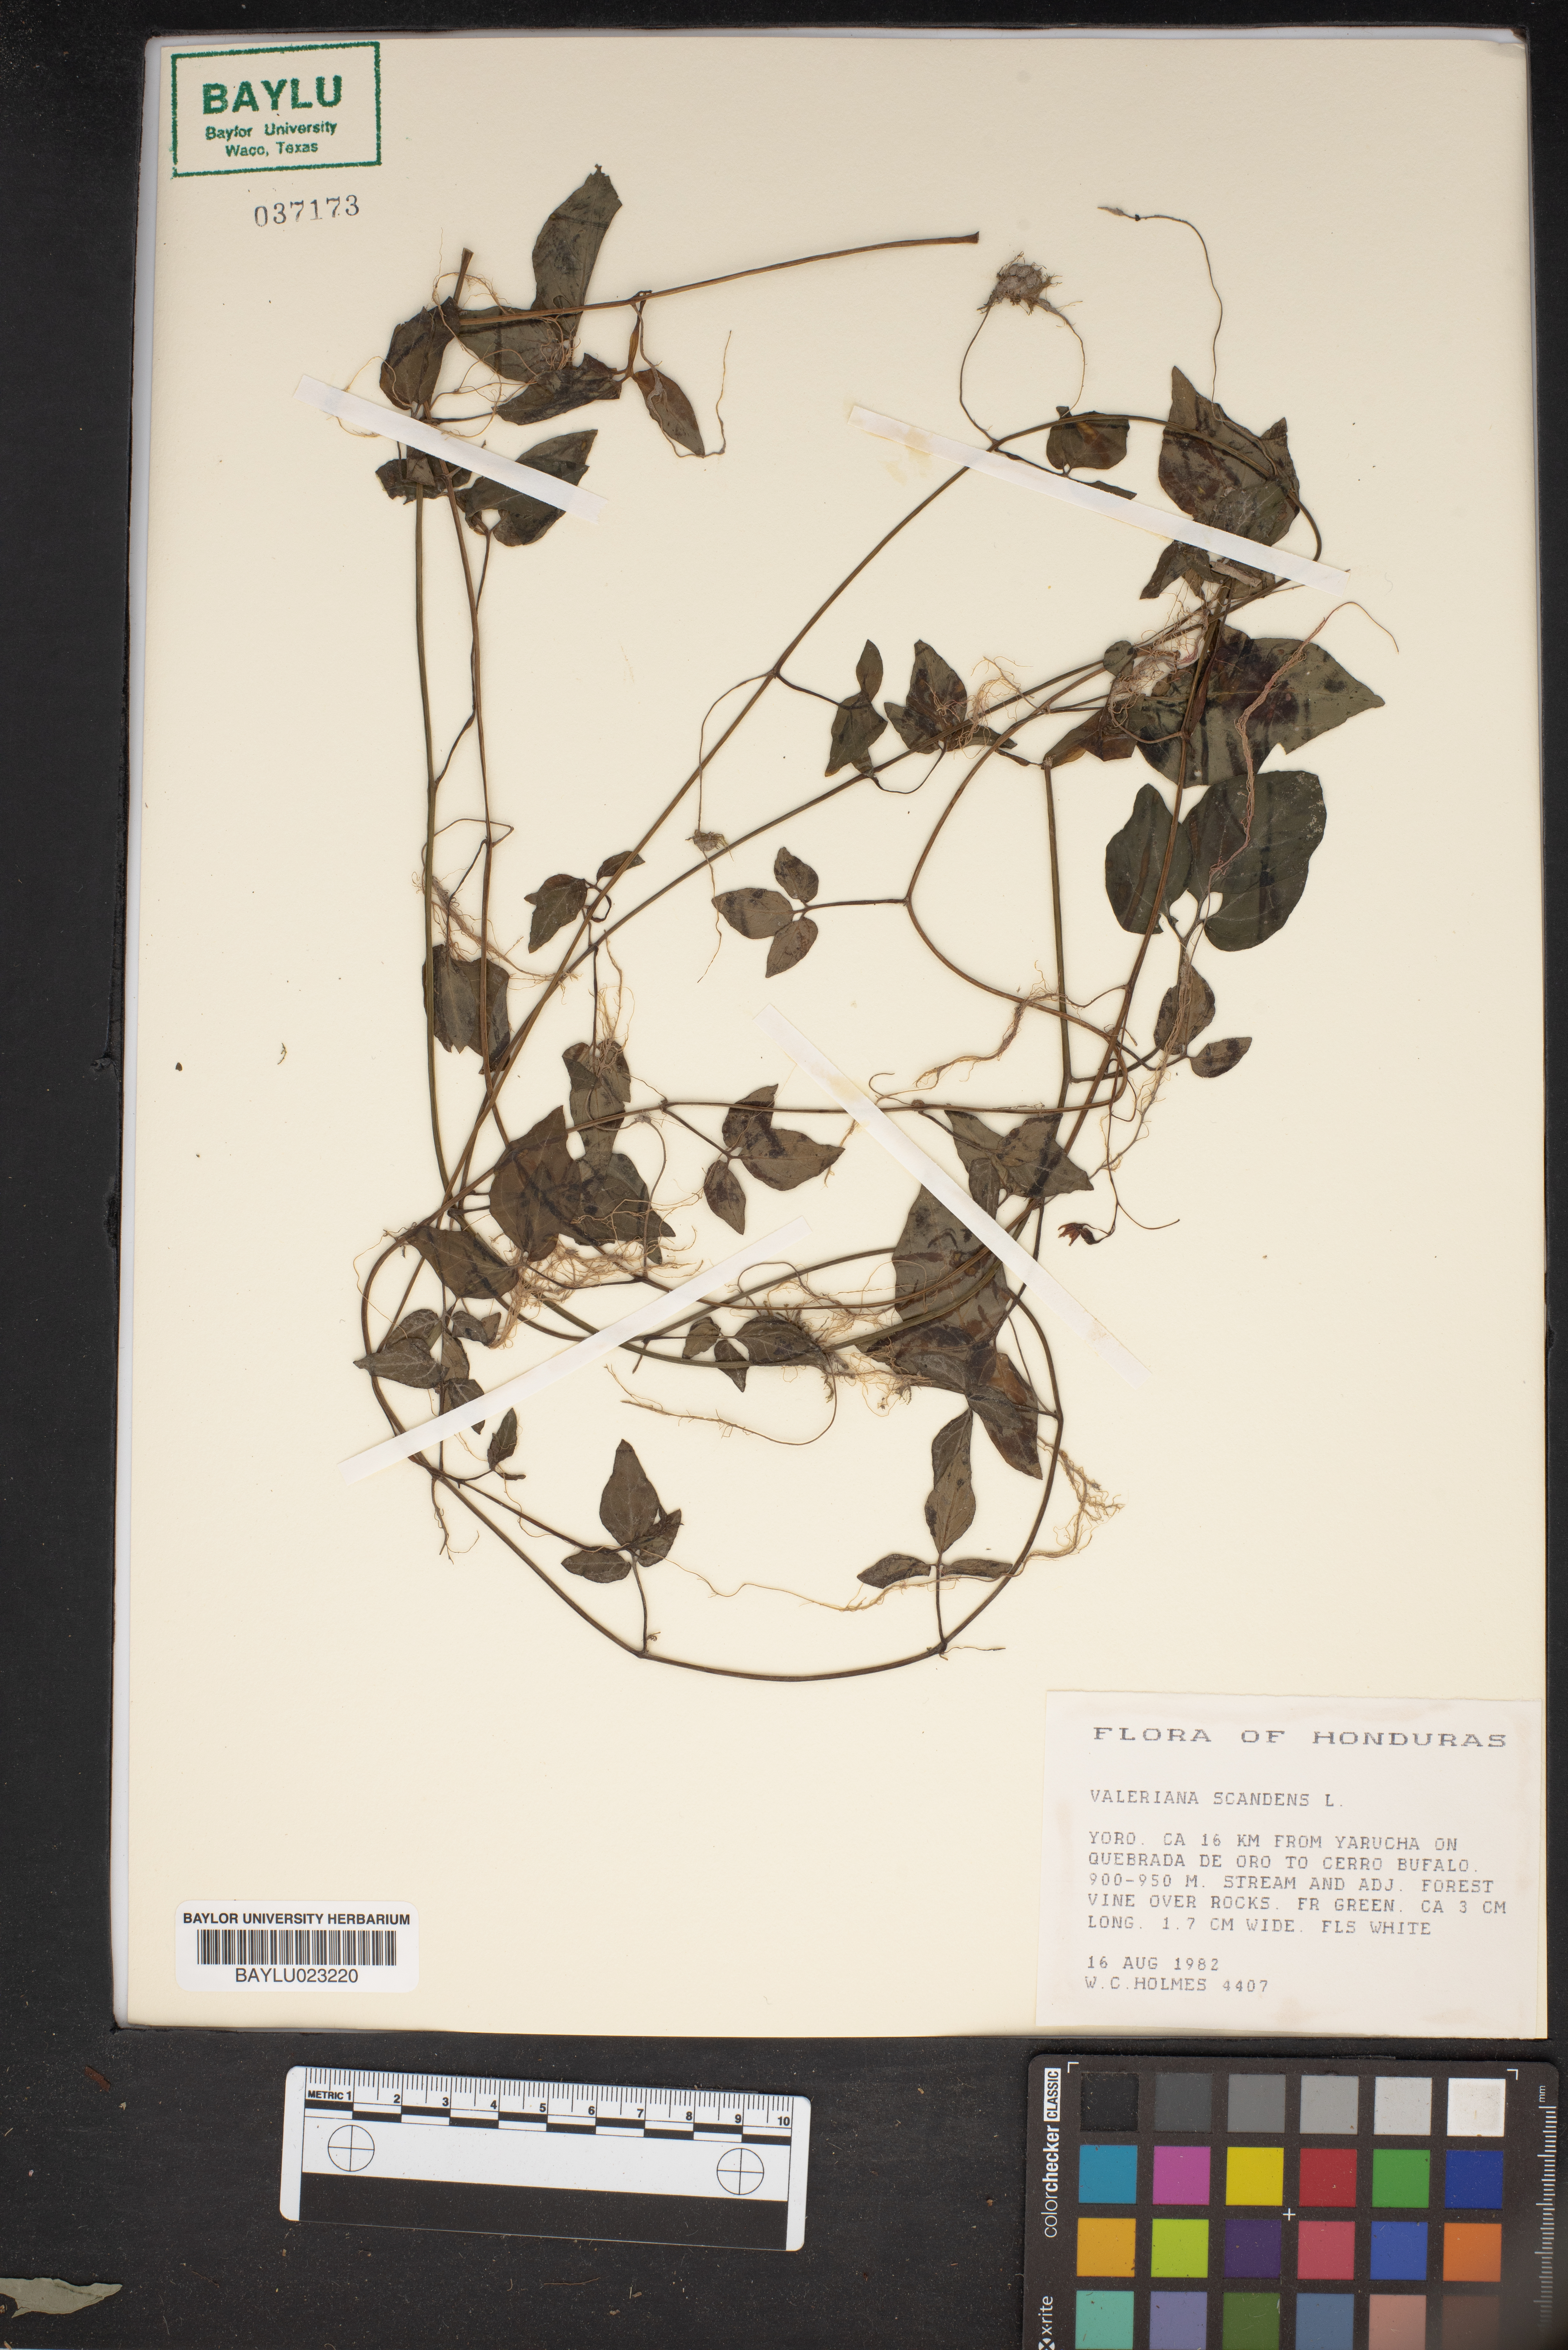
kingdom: Plantae
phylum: Tracheophyta
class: Magnoliopsida
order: Dipsacales
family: Caprifoliaceae
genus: Valeriana
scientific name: Valeriana scandens
